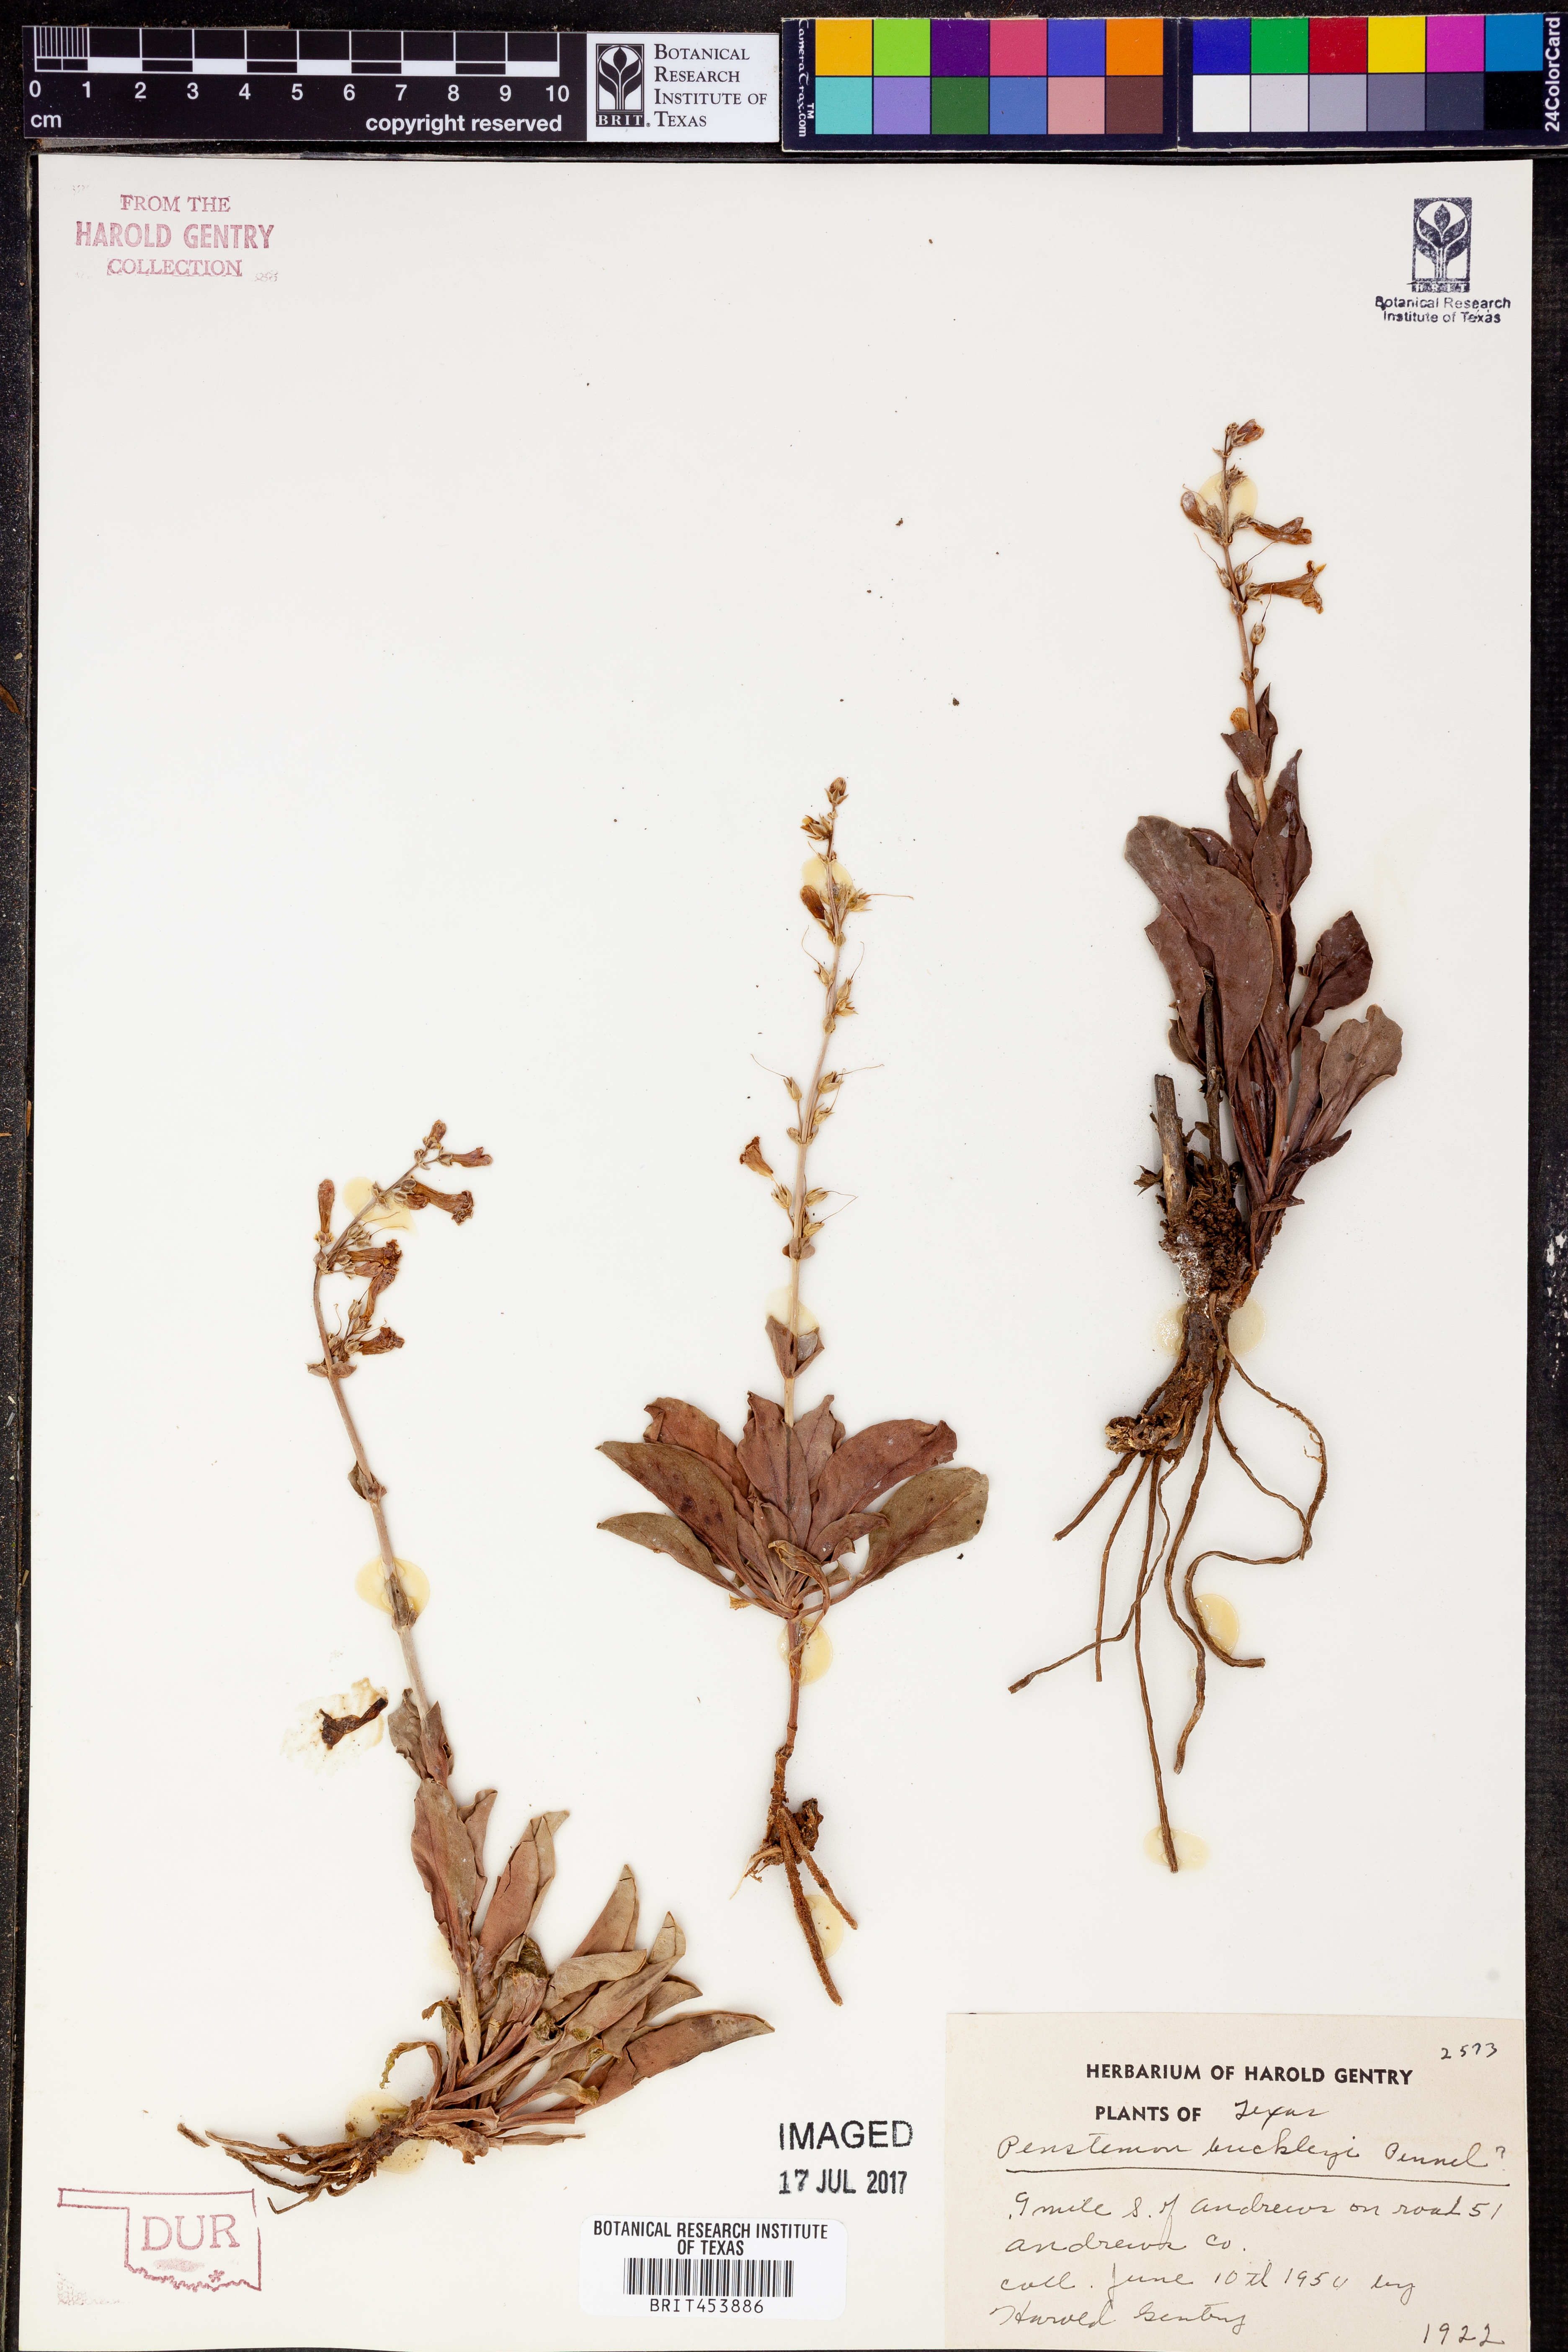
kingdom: Plantae
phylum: Tracheophyta
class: Magnoliopsida
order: Lamiales
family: Plantaginaceae
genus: Penstemon
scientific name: Penstemon buckleyi
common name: Buckley's penstemon
